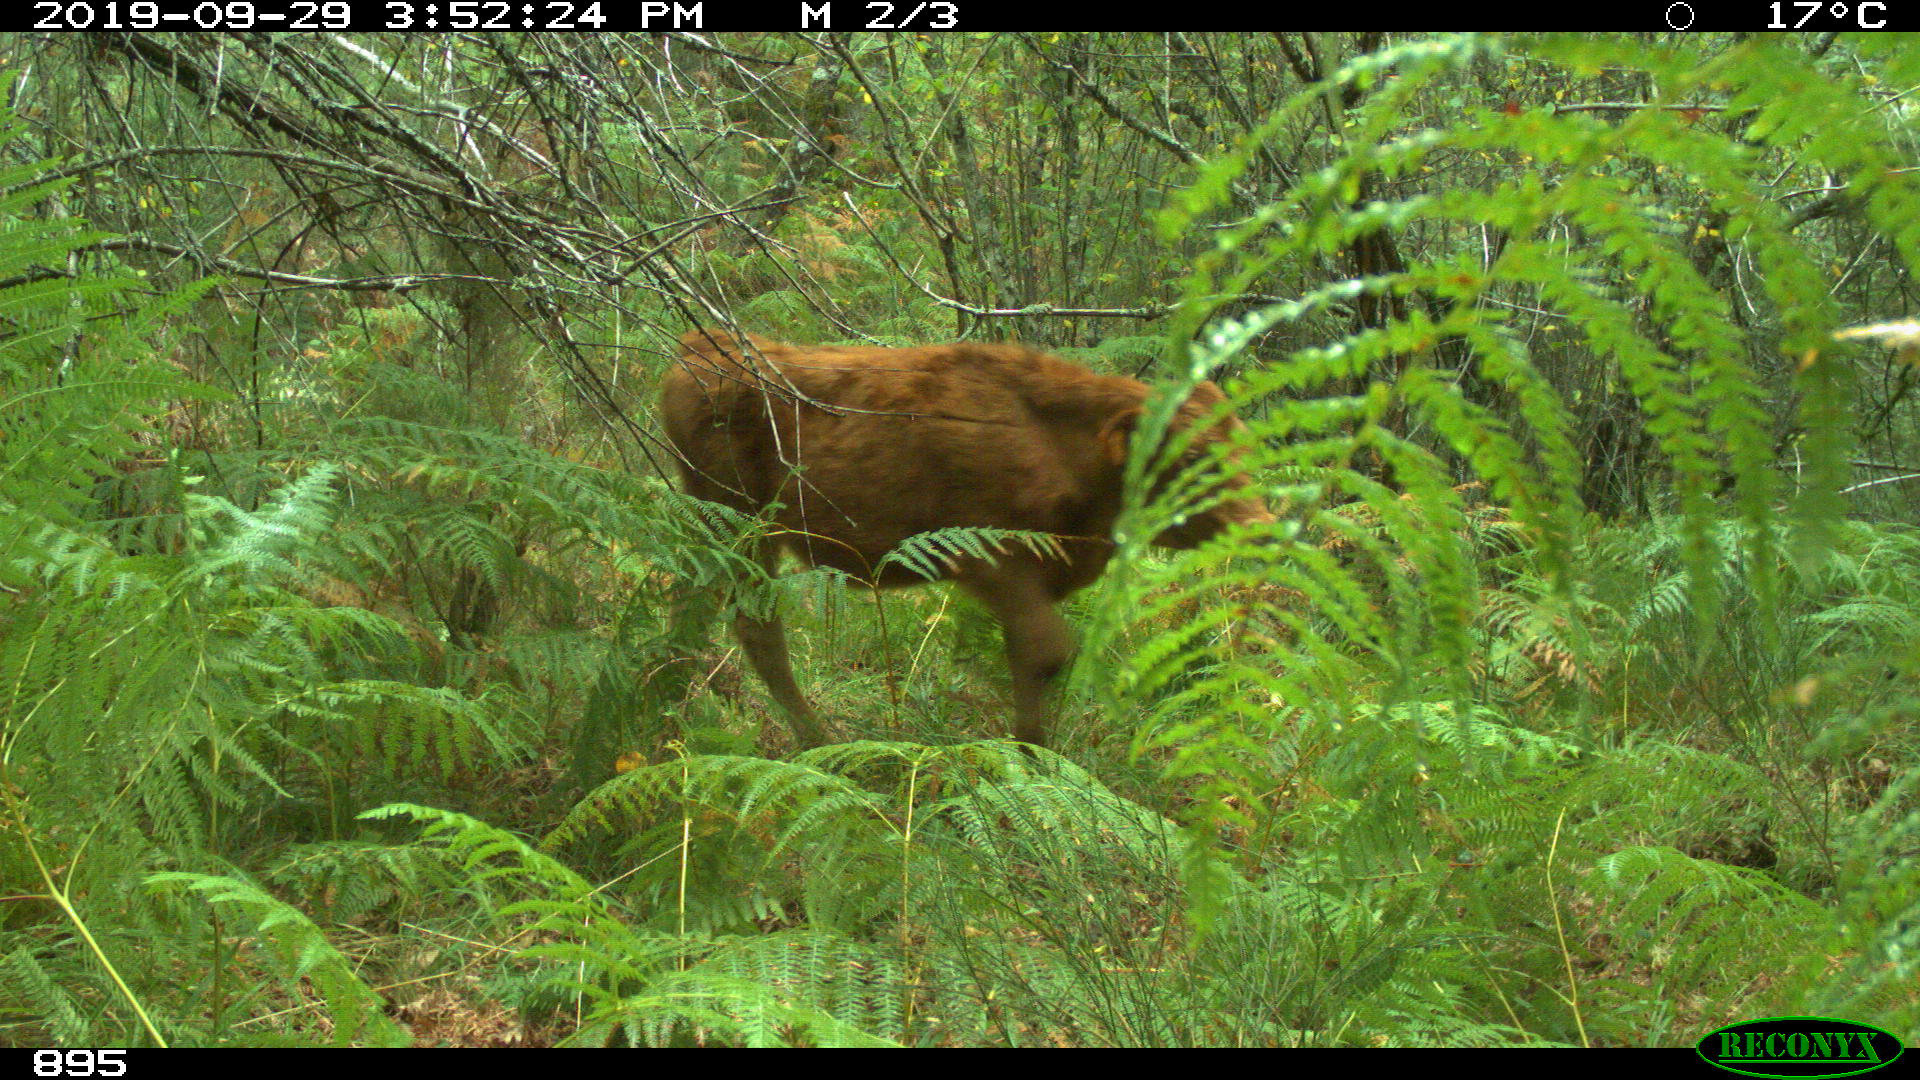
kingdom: Animalia
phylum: Chordata
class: Mammalia
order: Artiodactyla
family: Bovidae
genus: Bos
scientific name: Bos taurus
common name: Domesticated cattle
